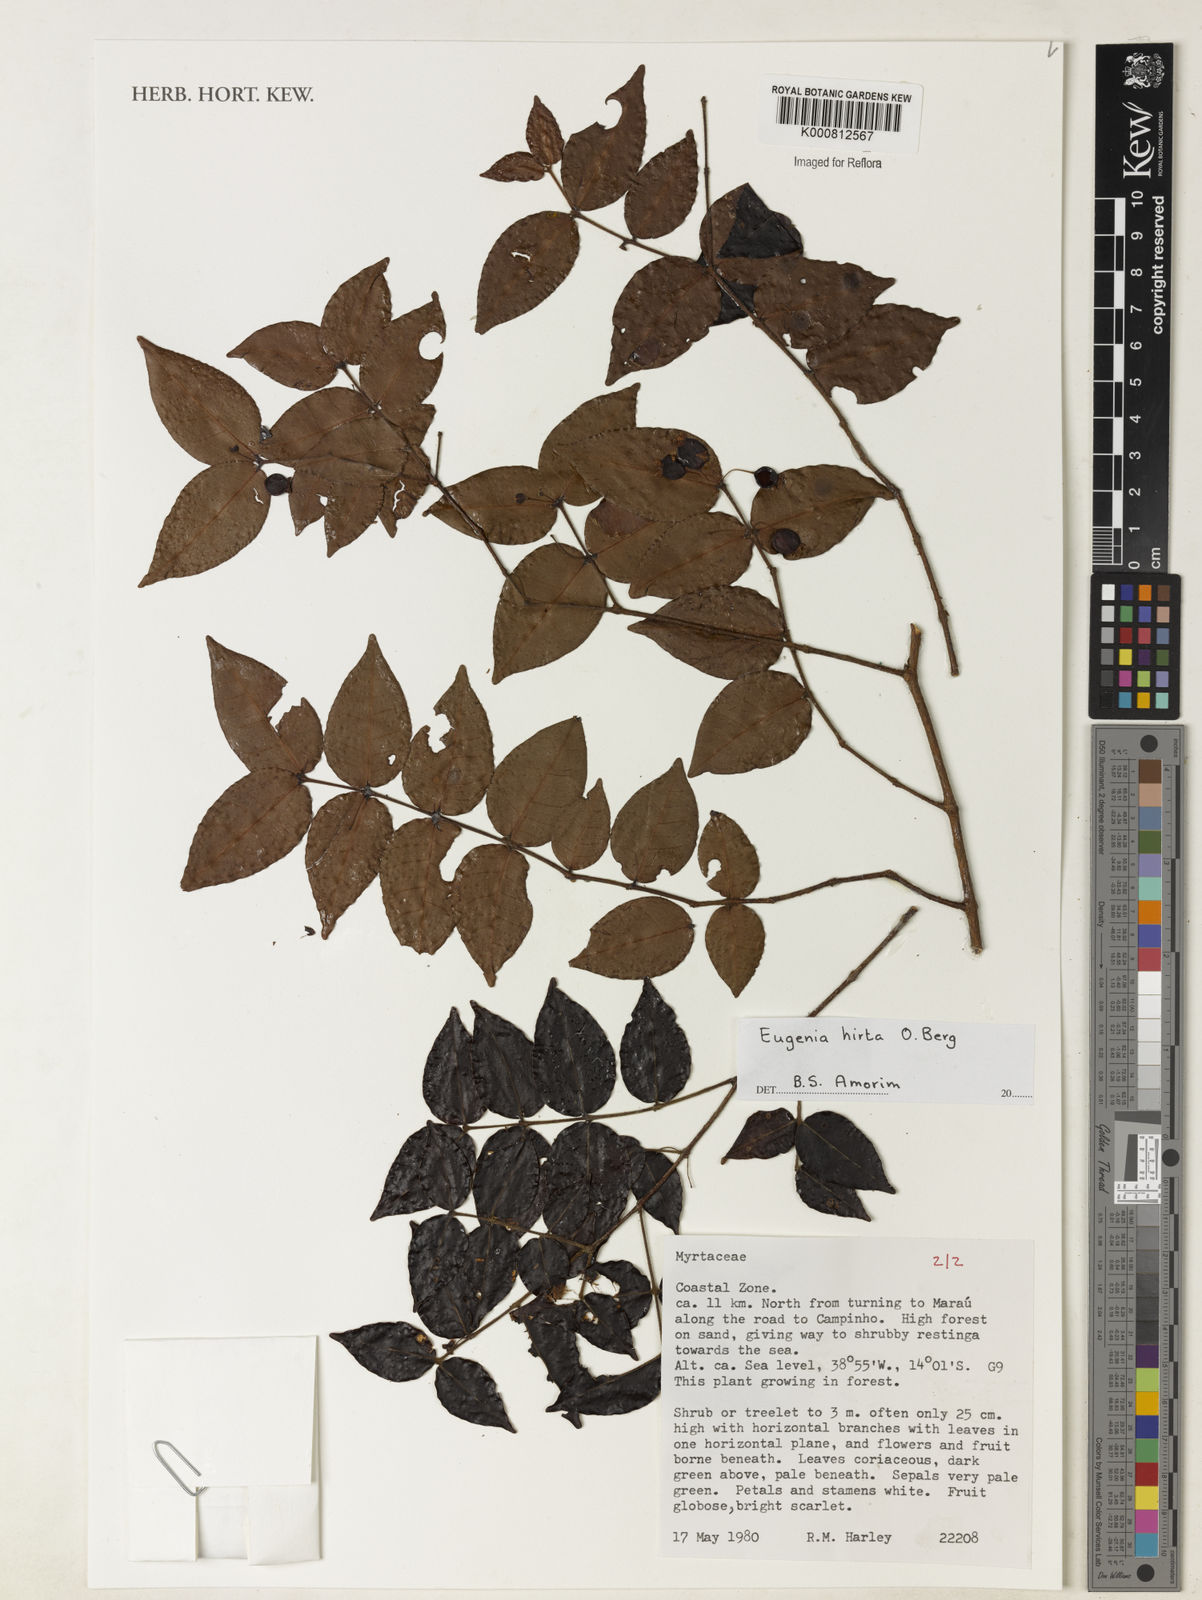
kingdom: Plantae
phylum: Tracheophyta
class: Magnoliopsida
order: Myrtales
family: Myrtaceae
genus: Eugenia
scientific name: Eugenia hirta
